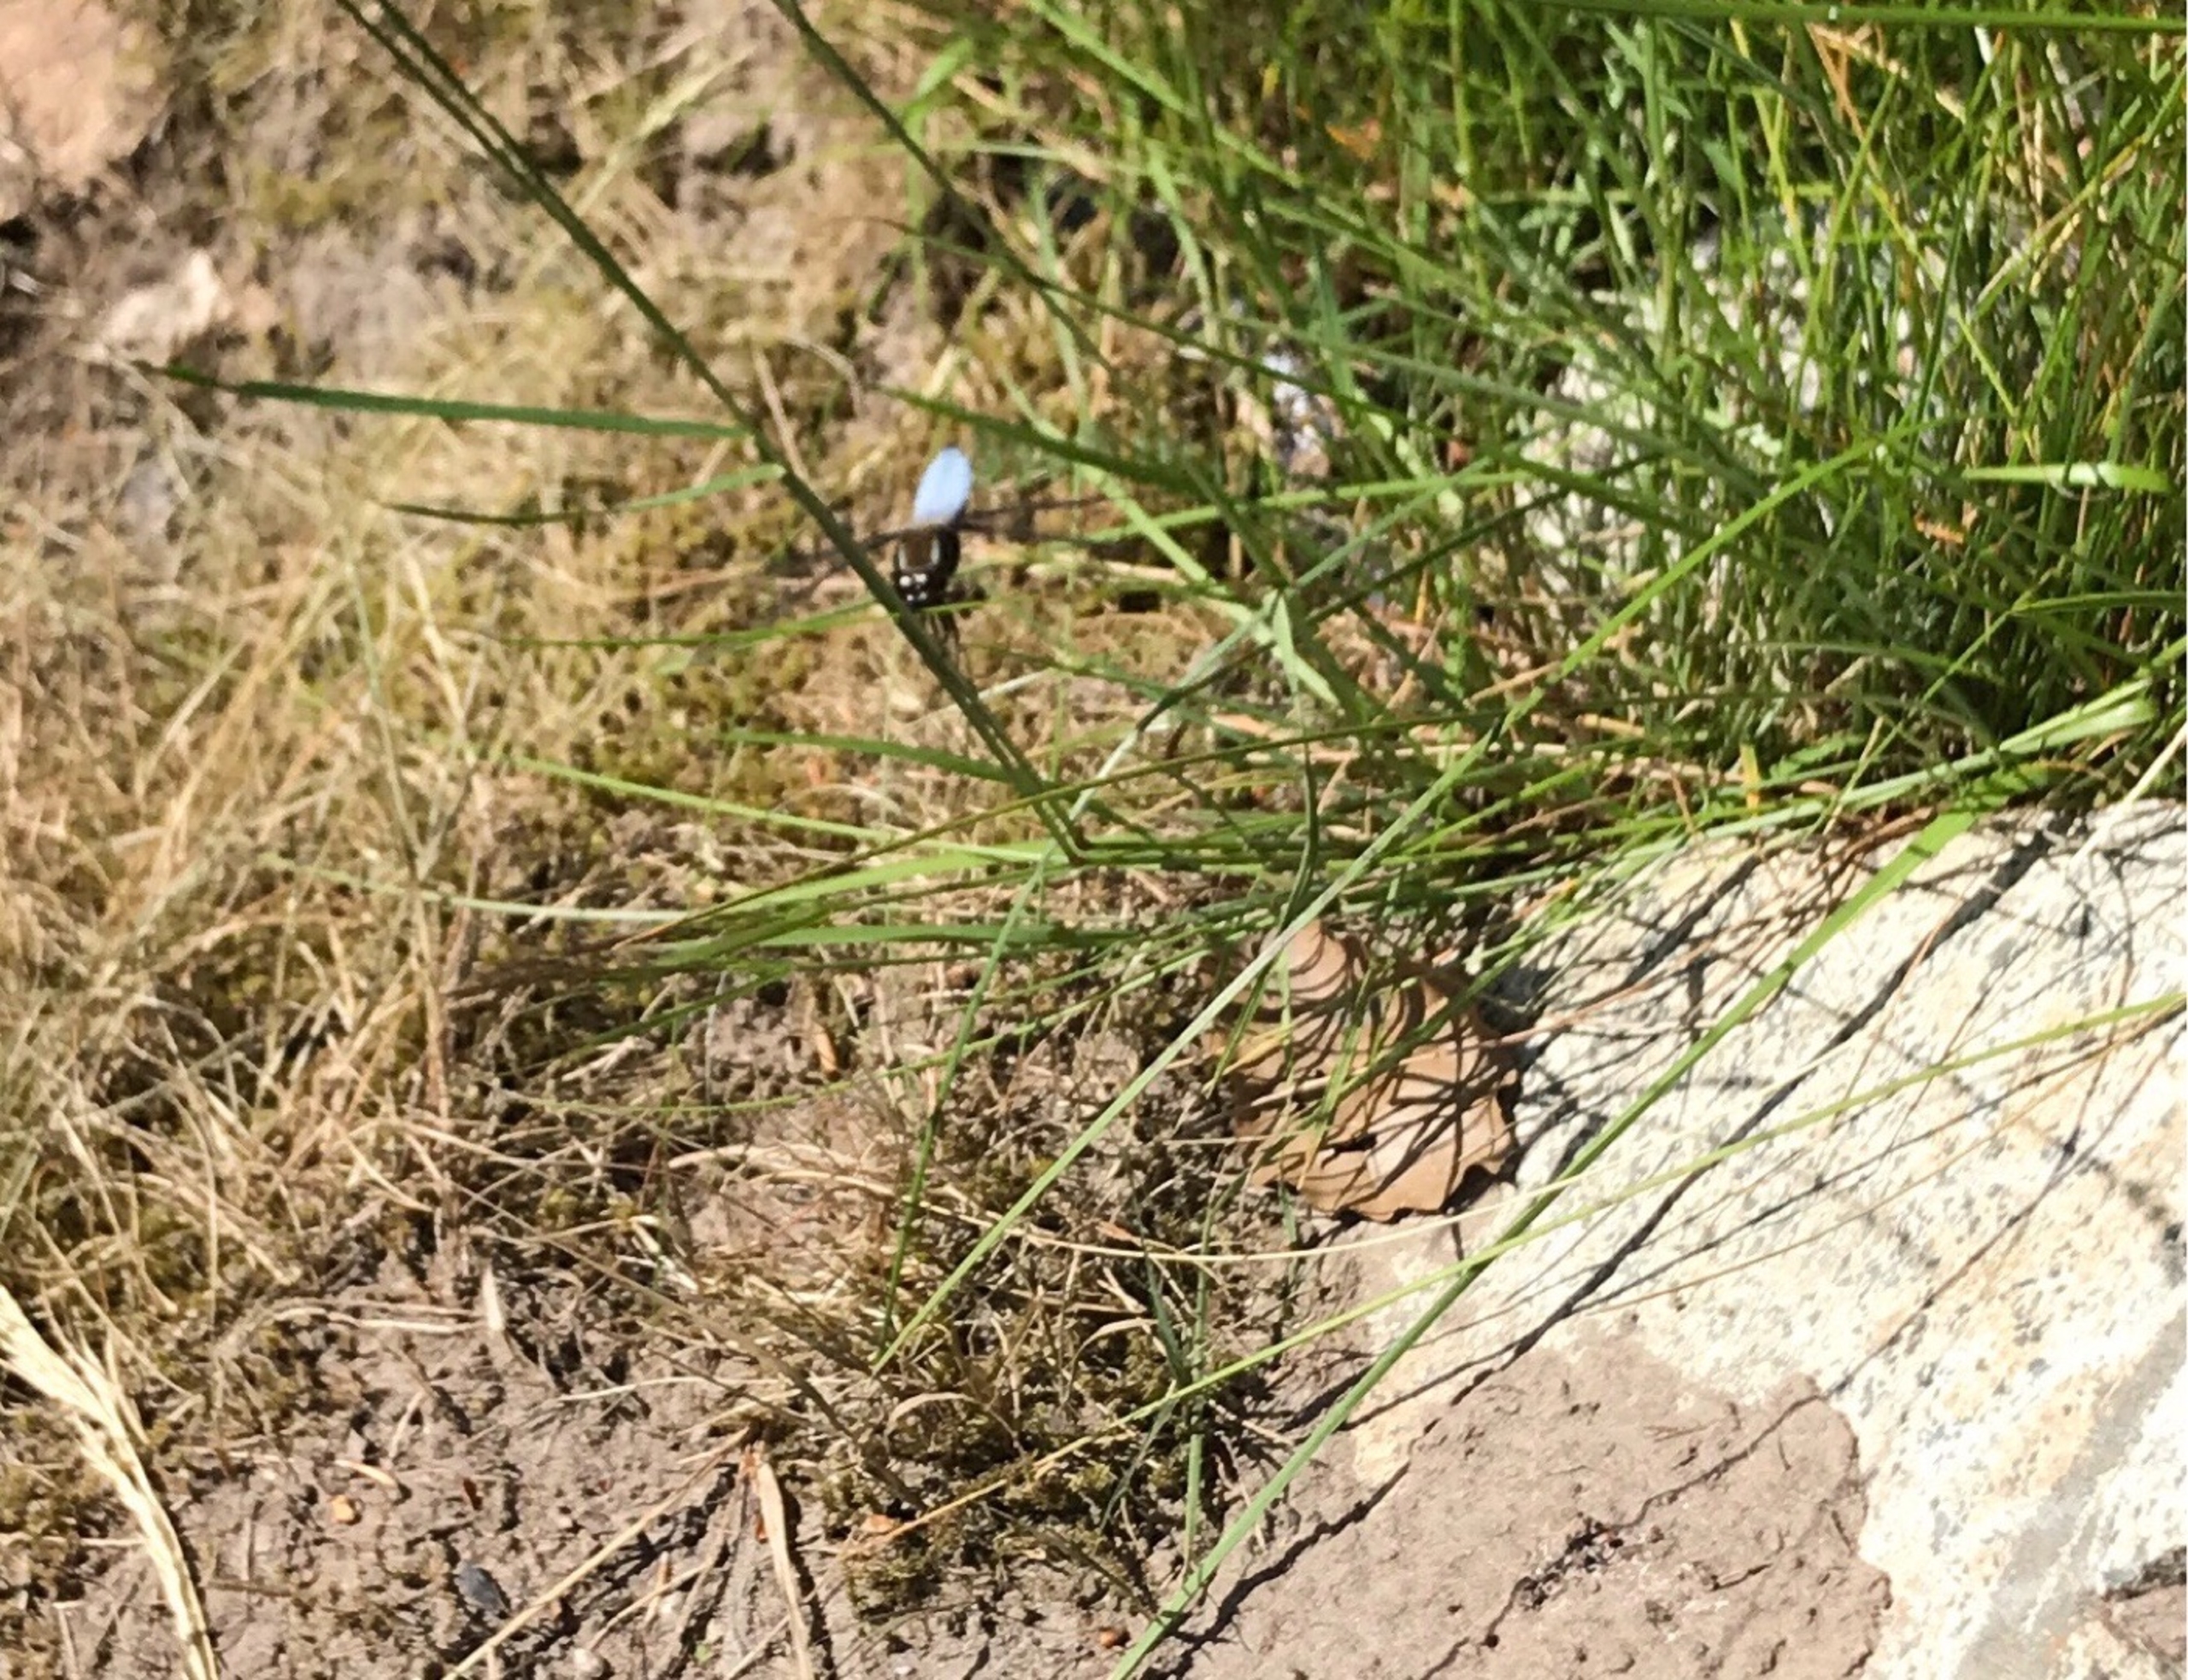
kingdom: Animalia
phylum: Arthropoda
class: Insecta
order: Odonata
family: Libellulidae
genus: Libellula
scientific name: Libellula depressa
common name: Blå libel
